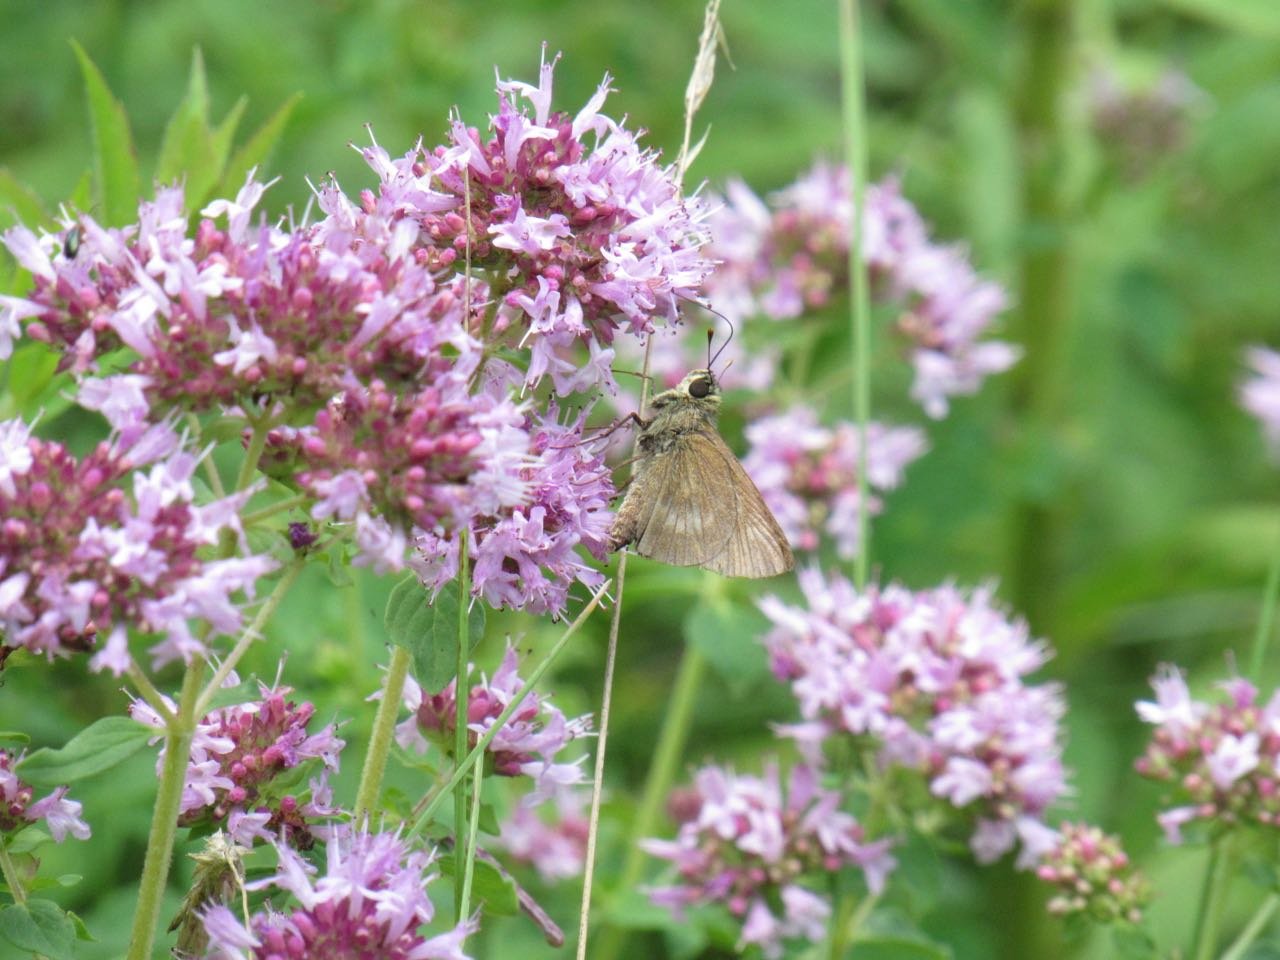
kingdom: Animalia
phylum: Arthropoda
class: Insecta
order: Lepidoptera
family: Hesperiidae
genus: Polites
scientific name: Polites egeremet
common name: Northern Broken-Dash
